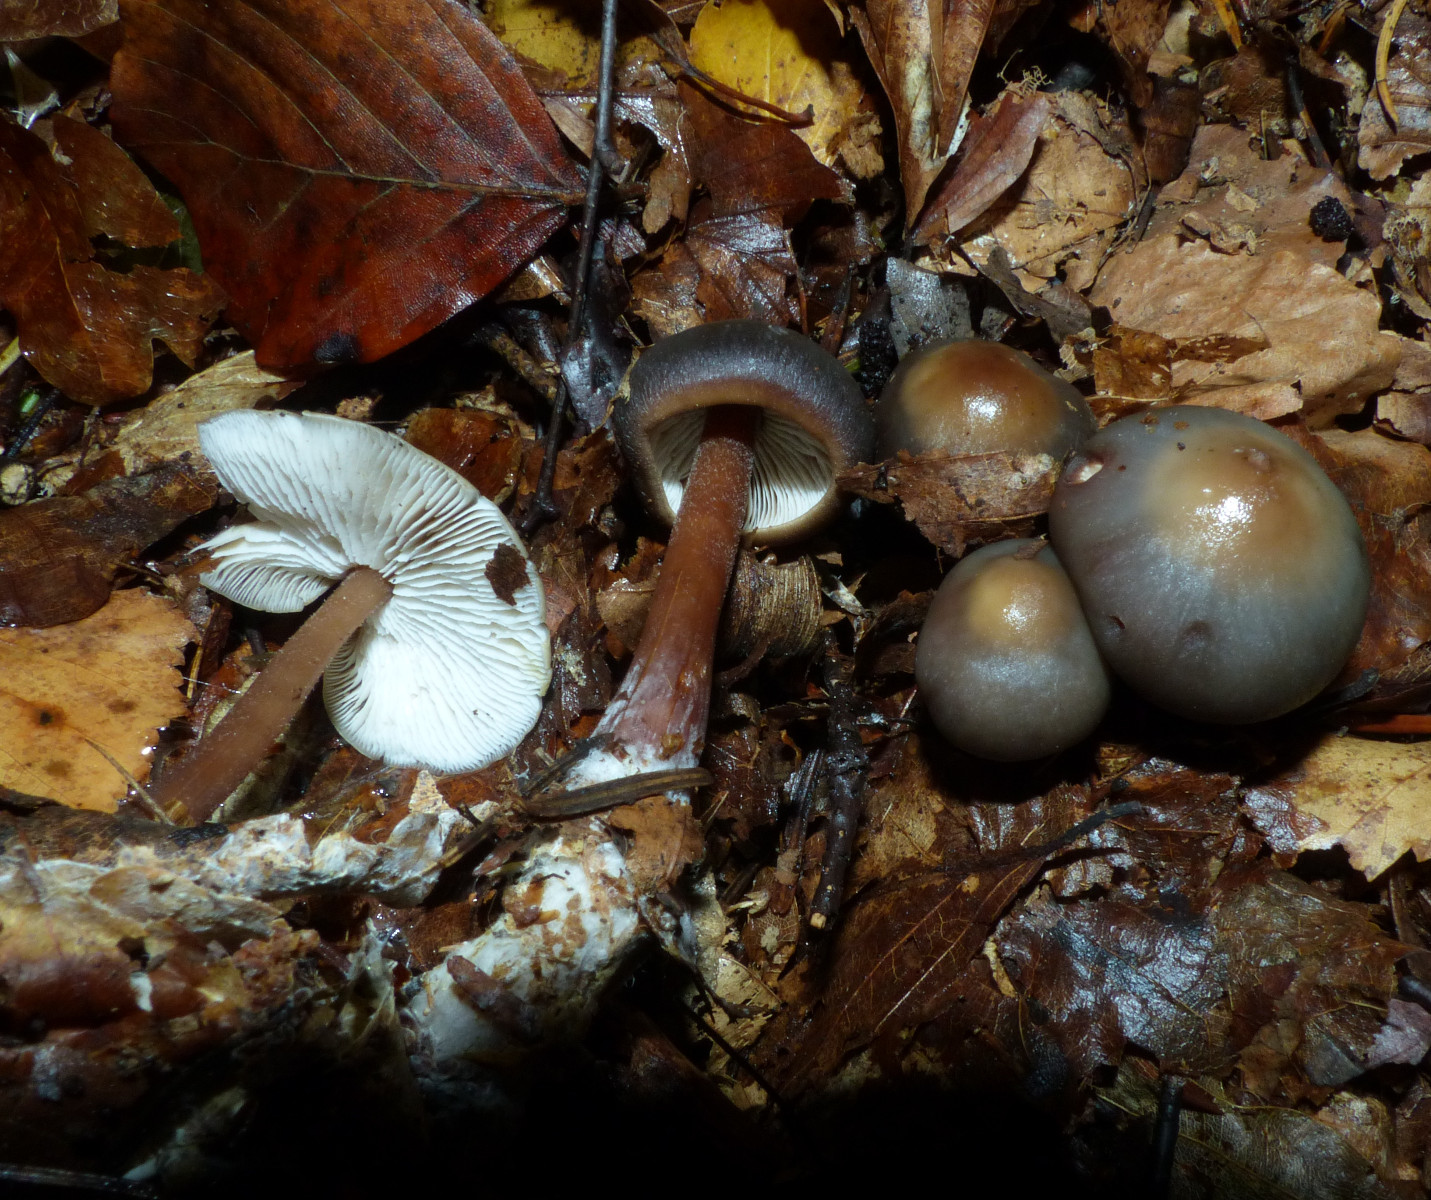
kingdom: Fungi
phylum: Basidiomycota
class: Agaricomycetes
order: Agaricales
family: Omphalotaceae
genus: Rhodocollybia
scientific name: Rhodocollybia butyracea
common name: keglestokket fladhat
